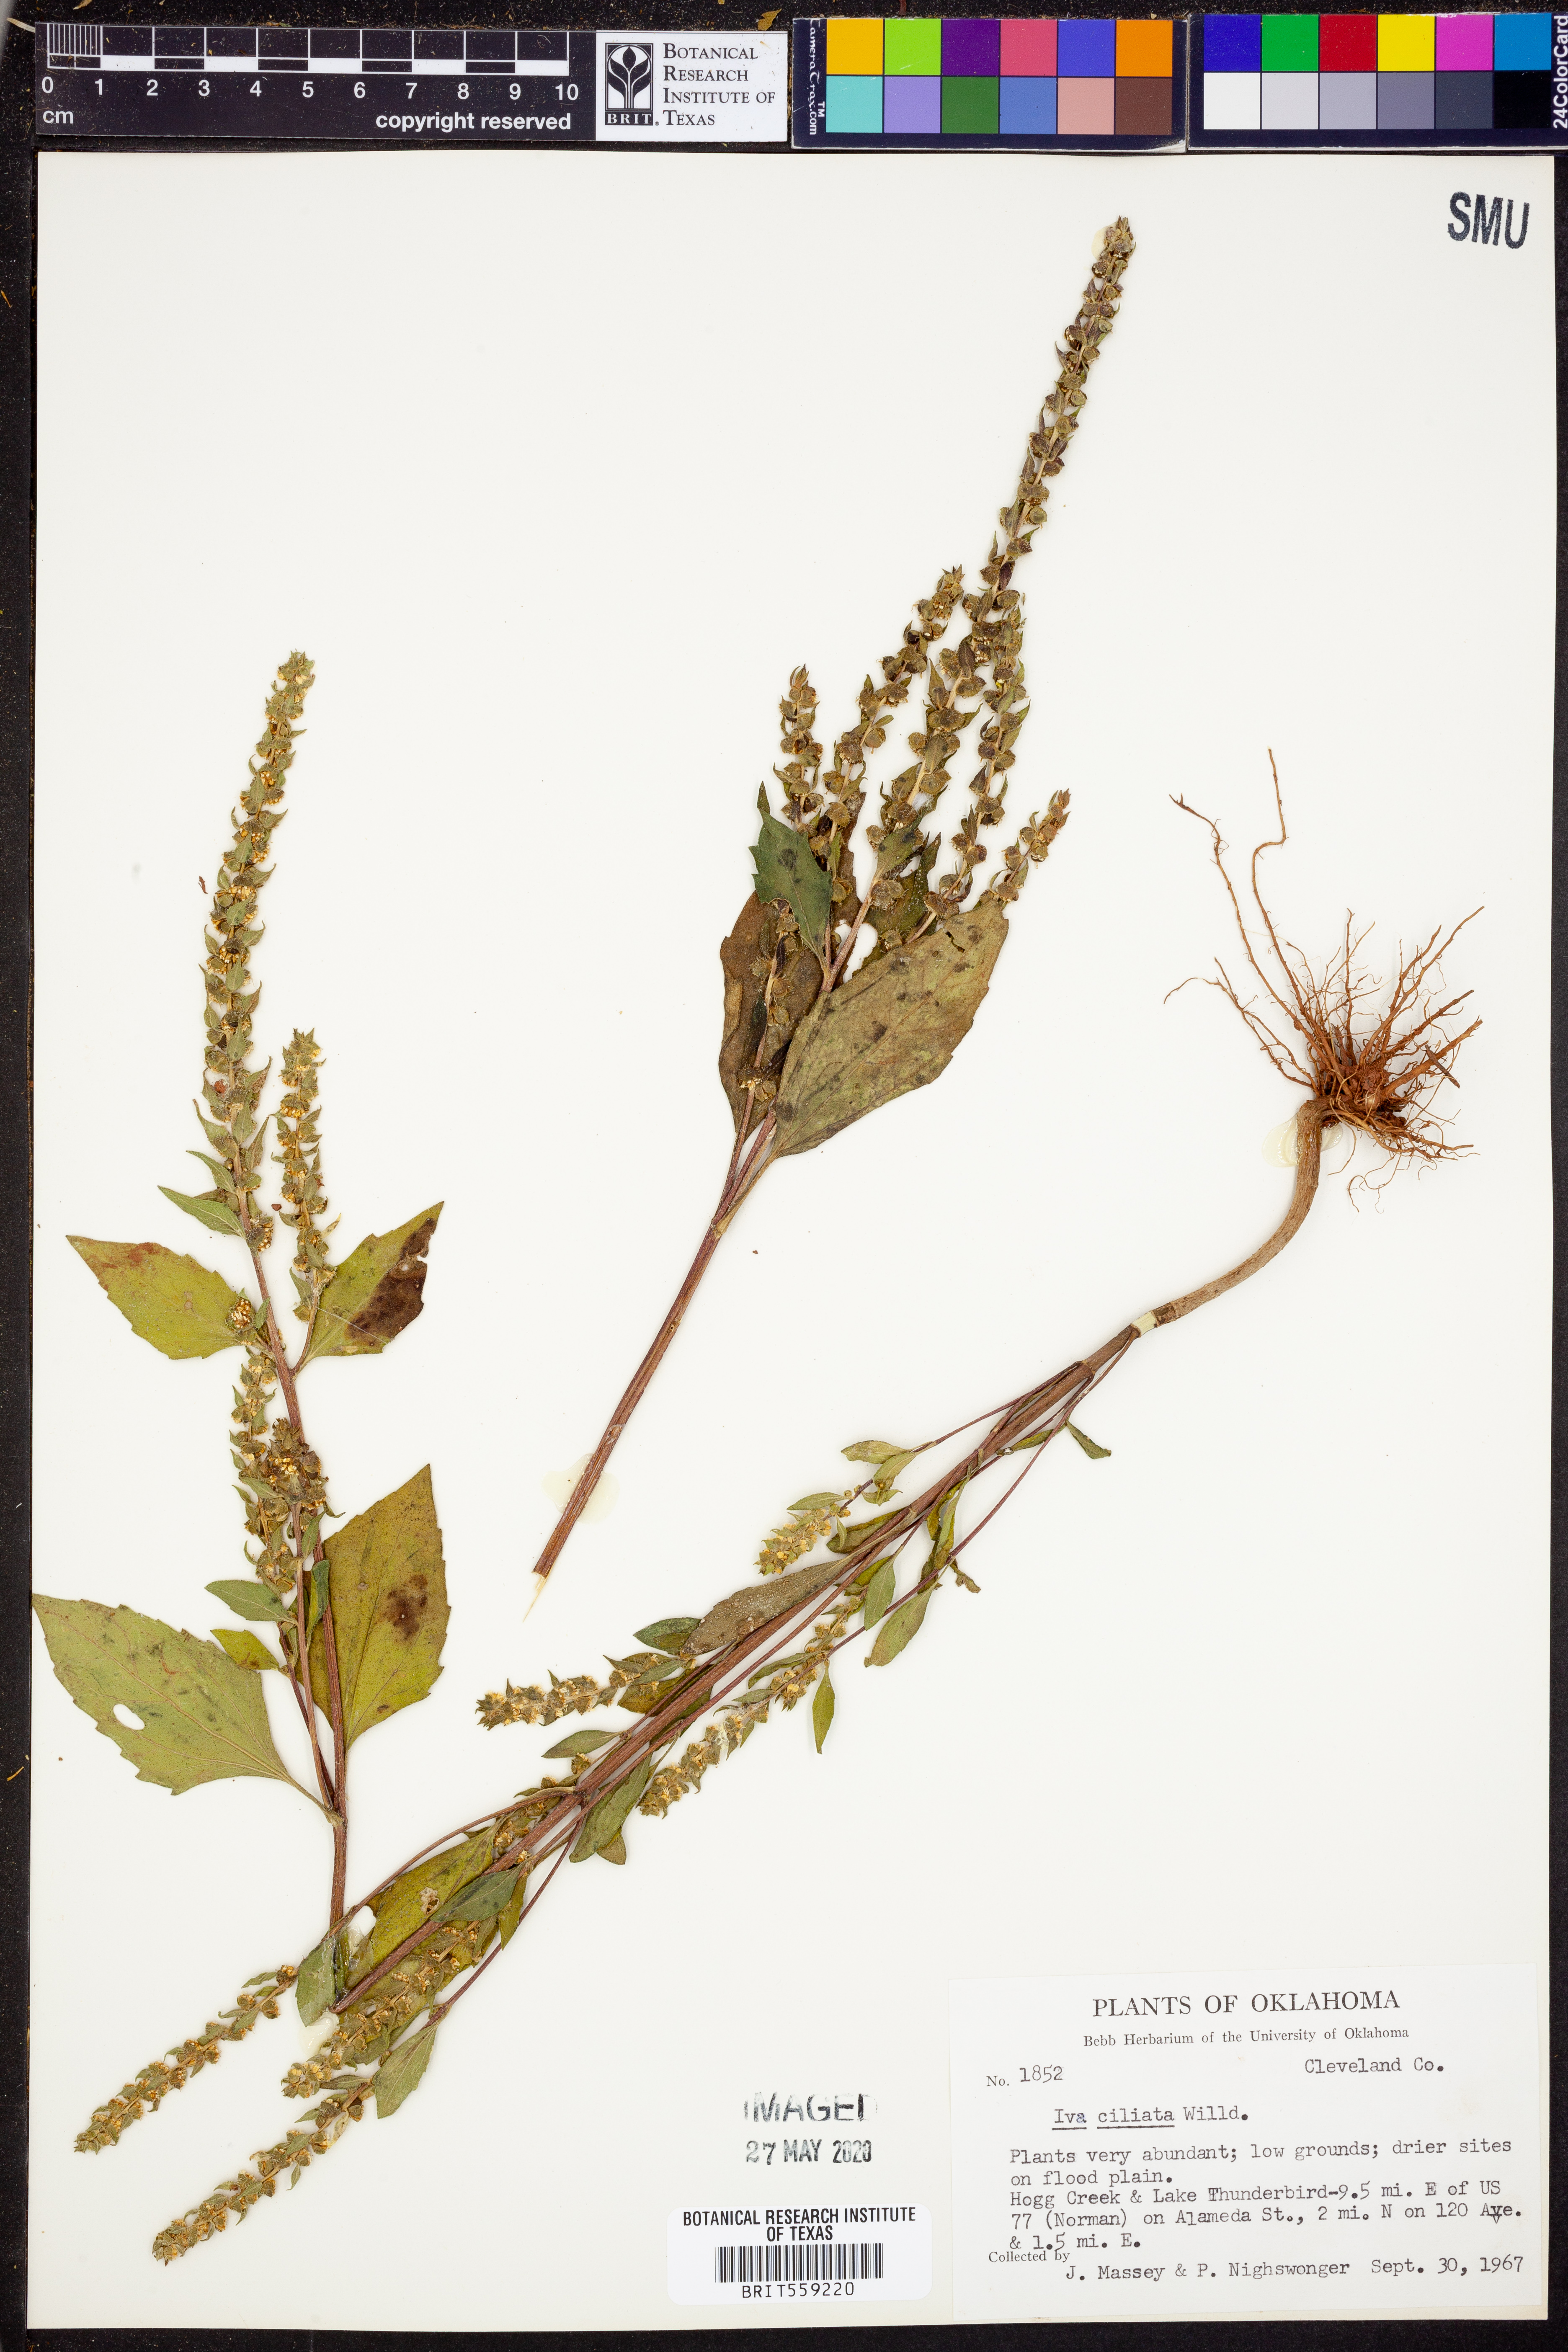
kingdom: Plantae
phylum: Tracheophyta
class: Magnoliopsida
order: Asterales
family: Asteraceae
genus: Iva
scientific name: Iva annua
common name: Marsh-elder
